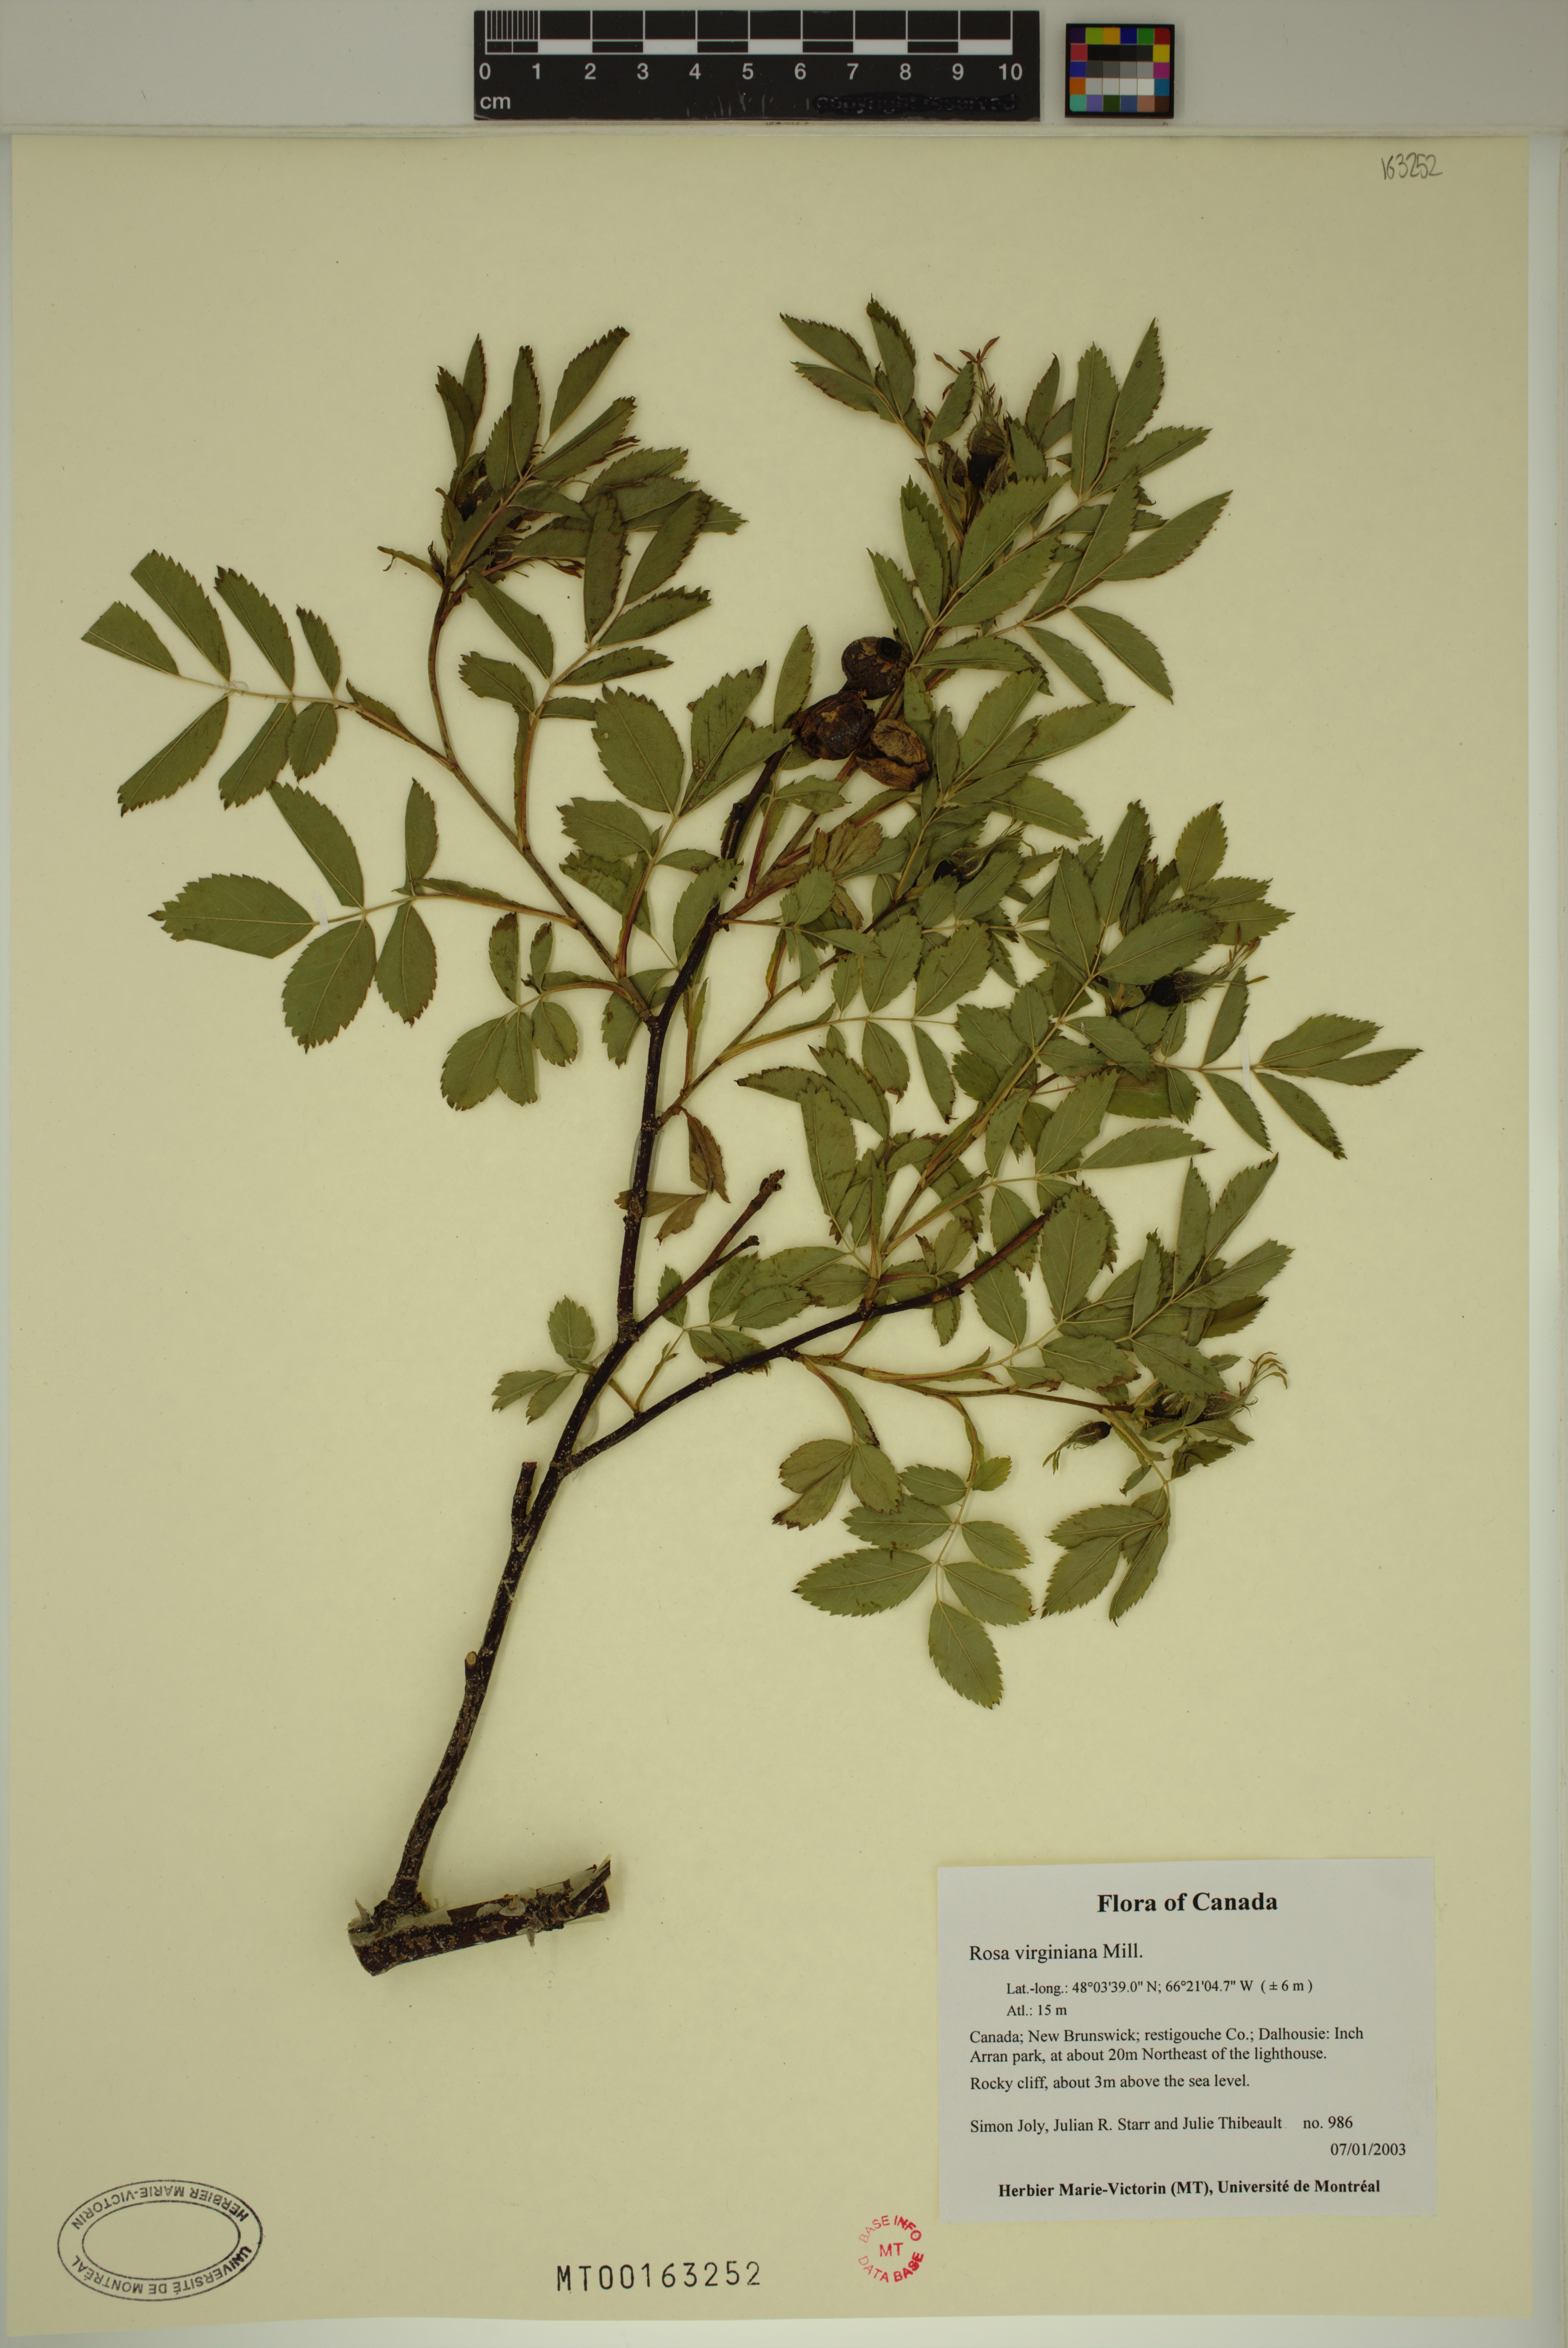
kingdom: Plantae
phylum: Tracheophyta
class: Magnoliopsida
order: Rosales
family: Rosaceae
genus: Rosa
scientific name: Rosa carolina
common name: Pasture rose
